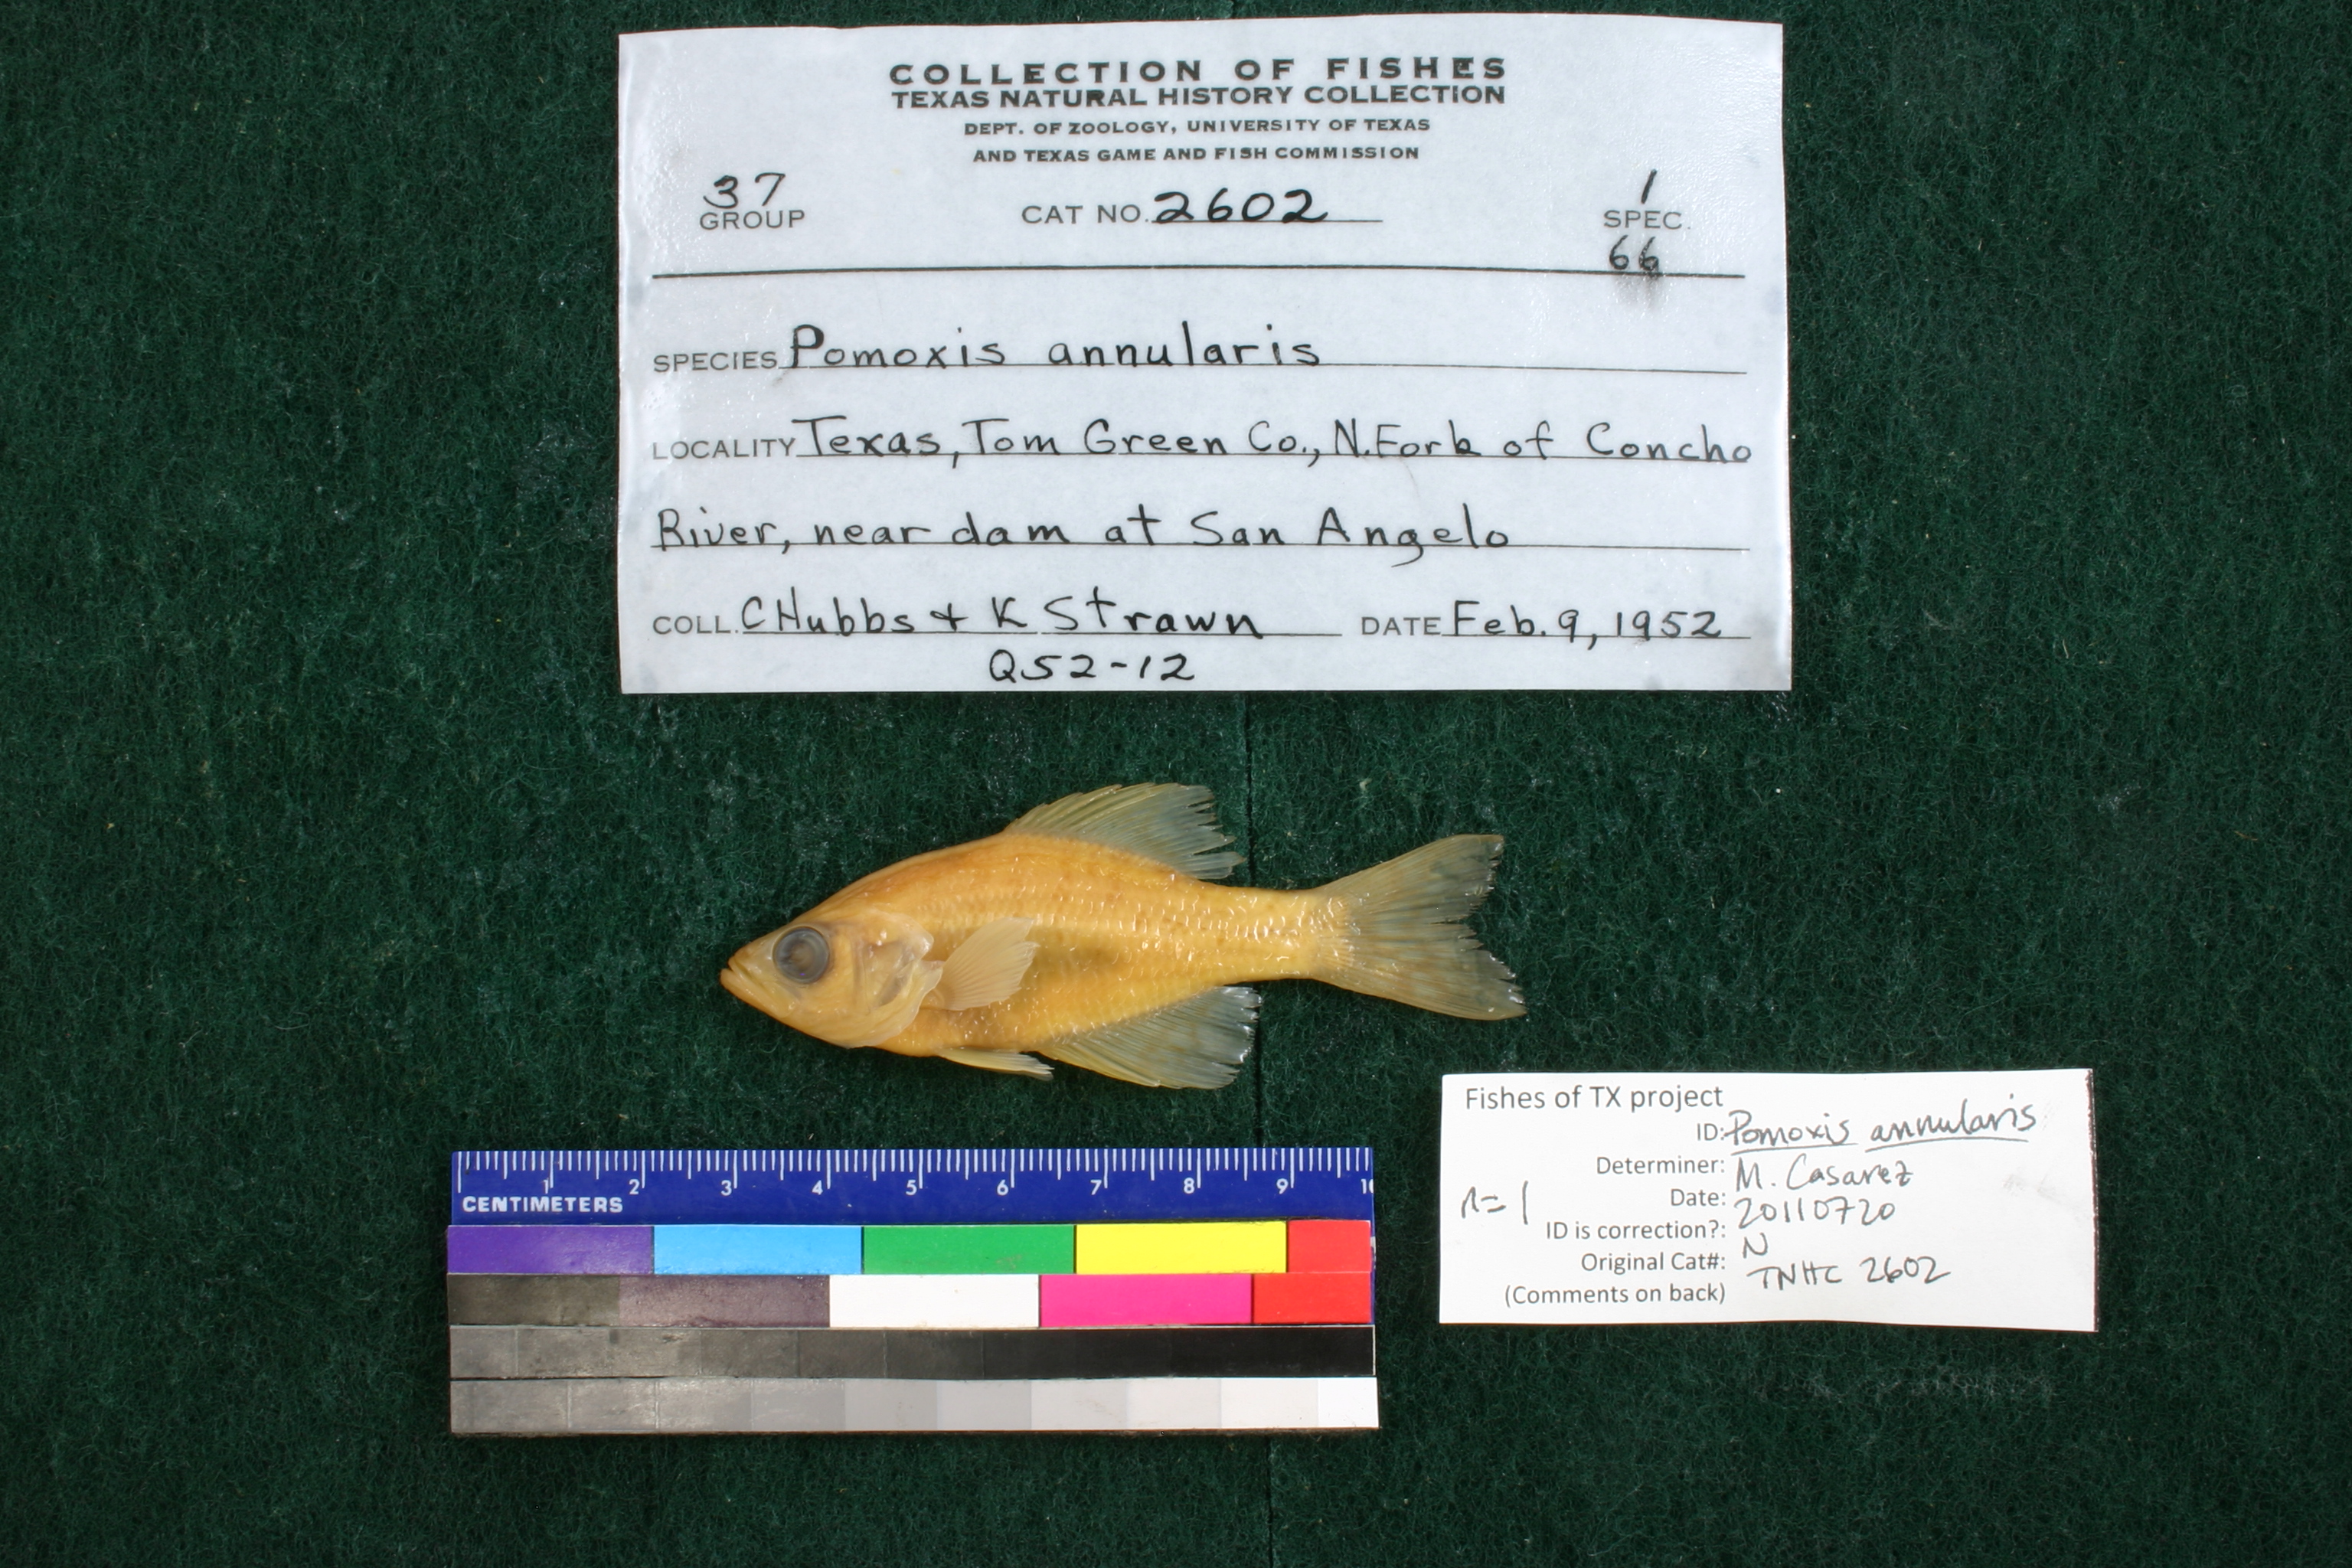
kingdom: Animalia
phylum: Chordata
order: Perciformes
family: Centrarchidae
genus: Pomoxis
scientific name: Pomoxis annularis
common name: White crappie
